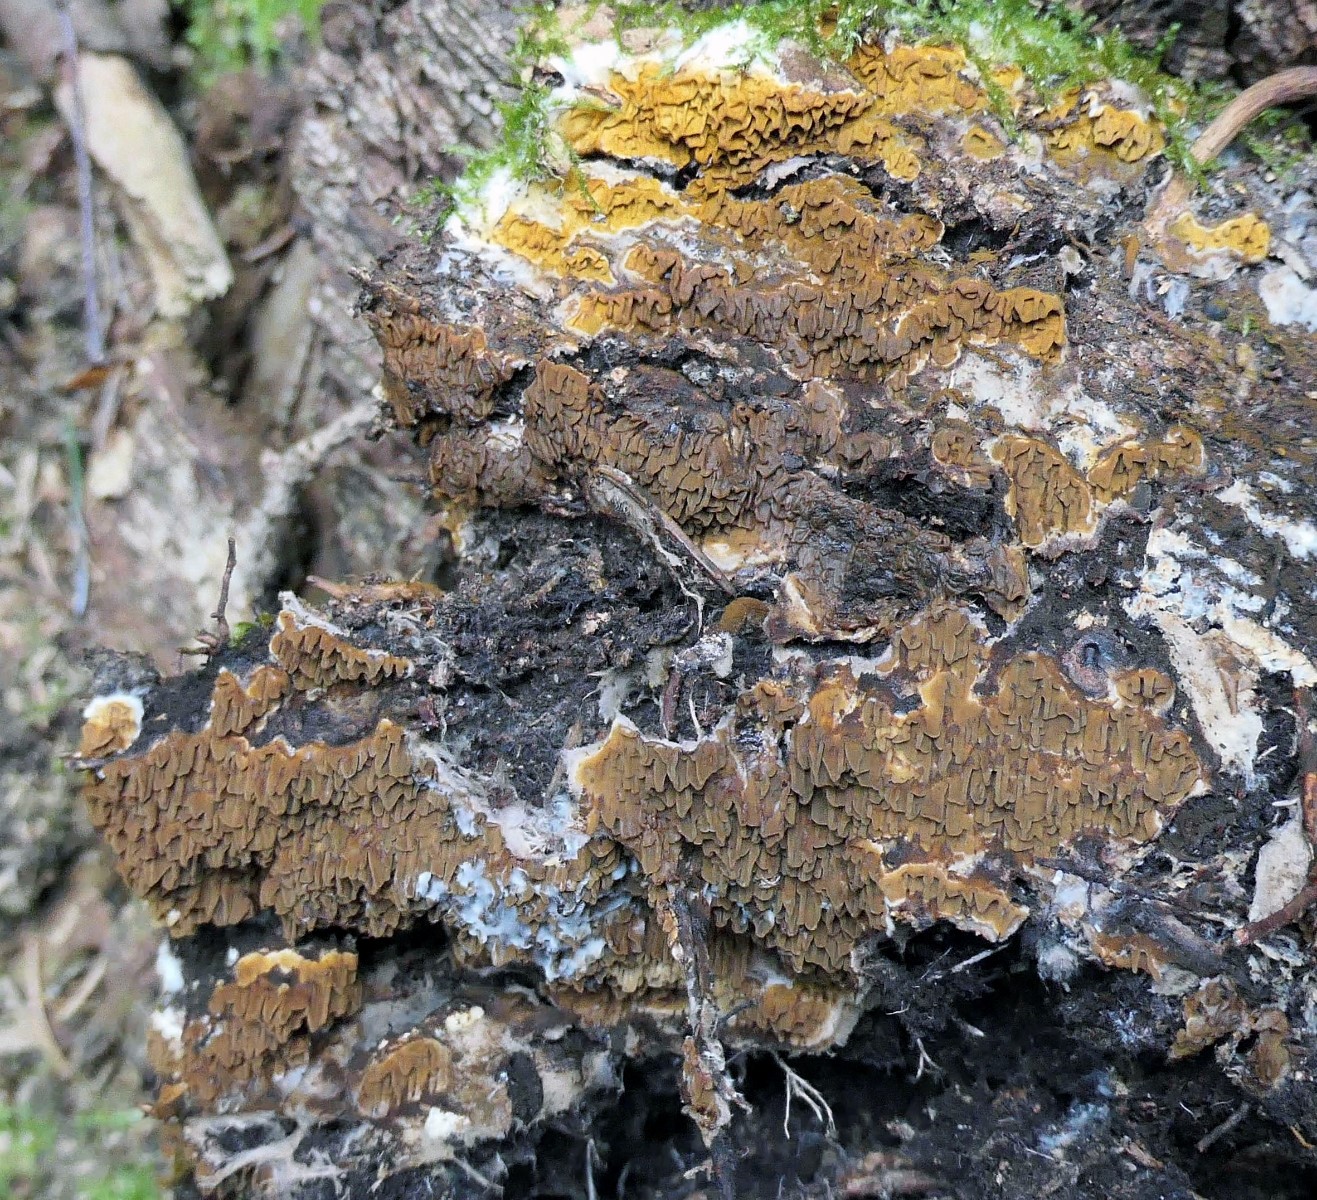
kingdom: Fungi
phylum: Basidiomycota
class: Agaricomycetes
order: Boletales
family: Serpulaceae
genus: Serpula
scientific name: Serpula himantioides
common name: tyndkødet hussvamp
